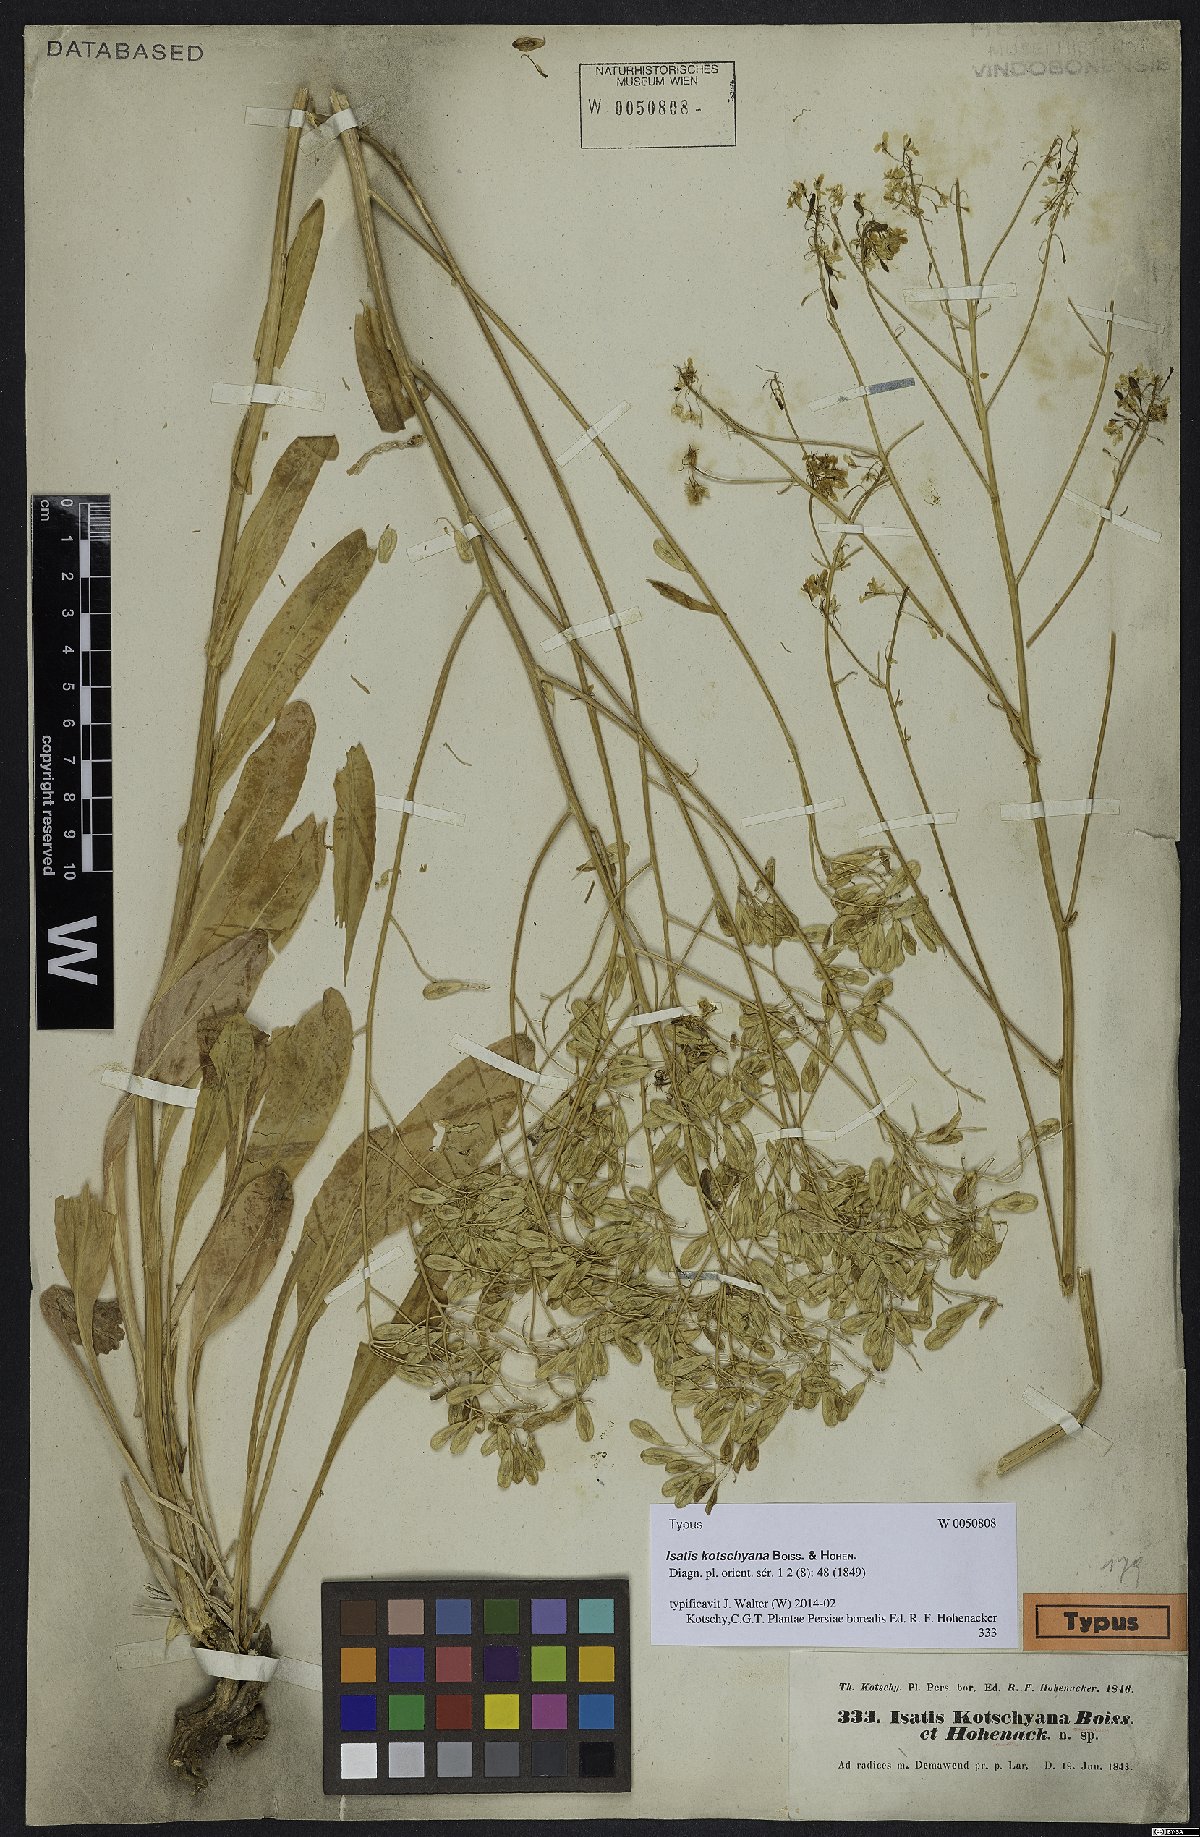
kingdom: Plantae
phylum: Tracheophyta
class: Magnoliopsida
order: Brassicales
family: Brassicaceae
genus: Isatis
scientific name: Isatis kotschyana
